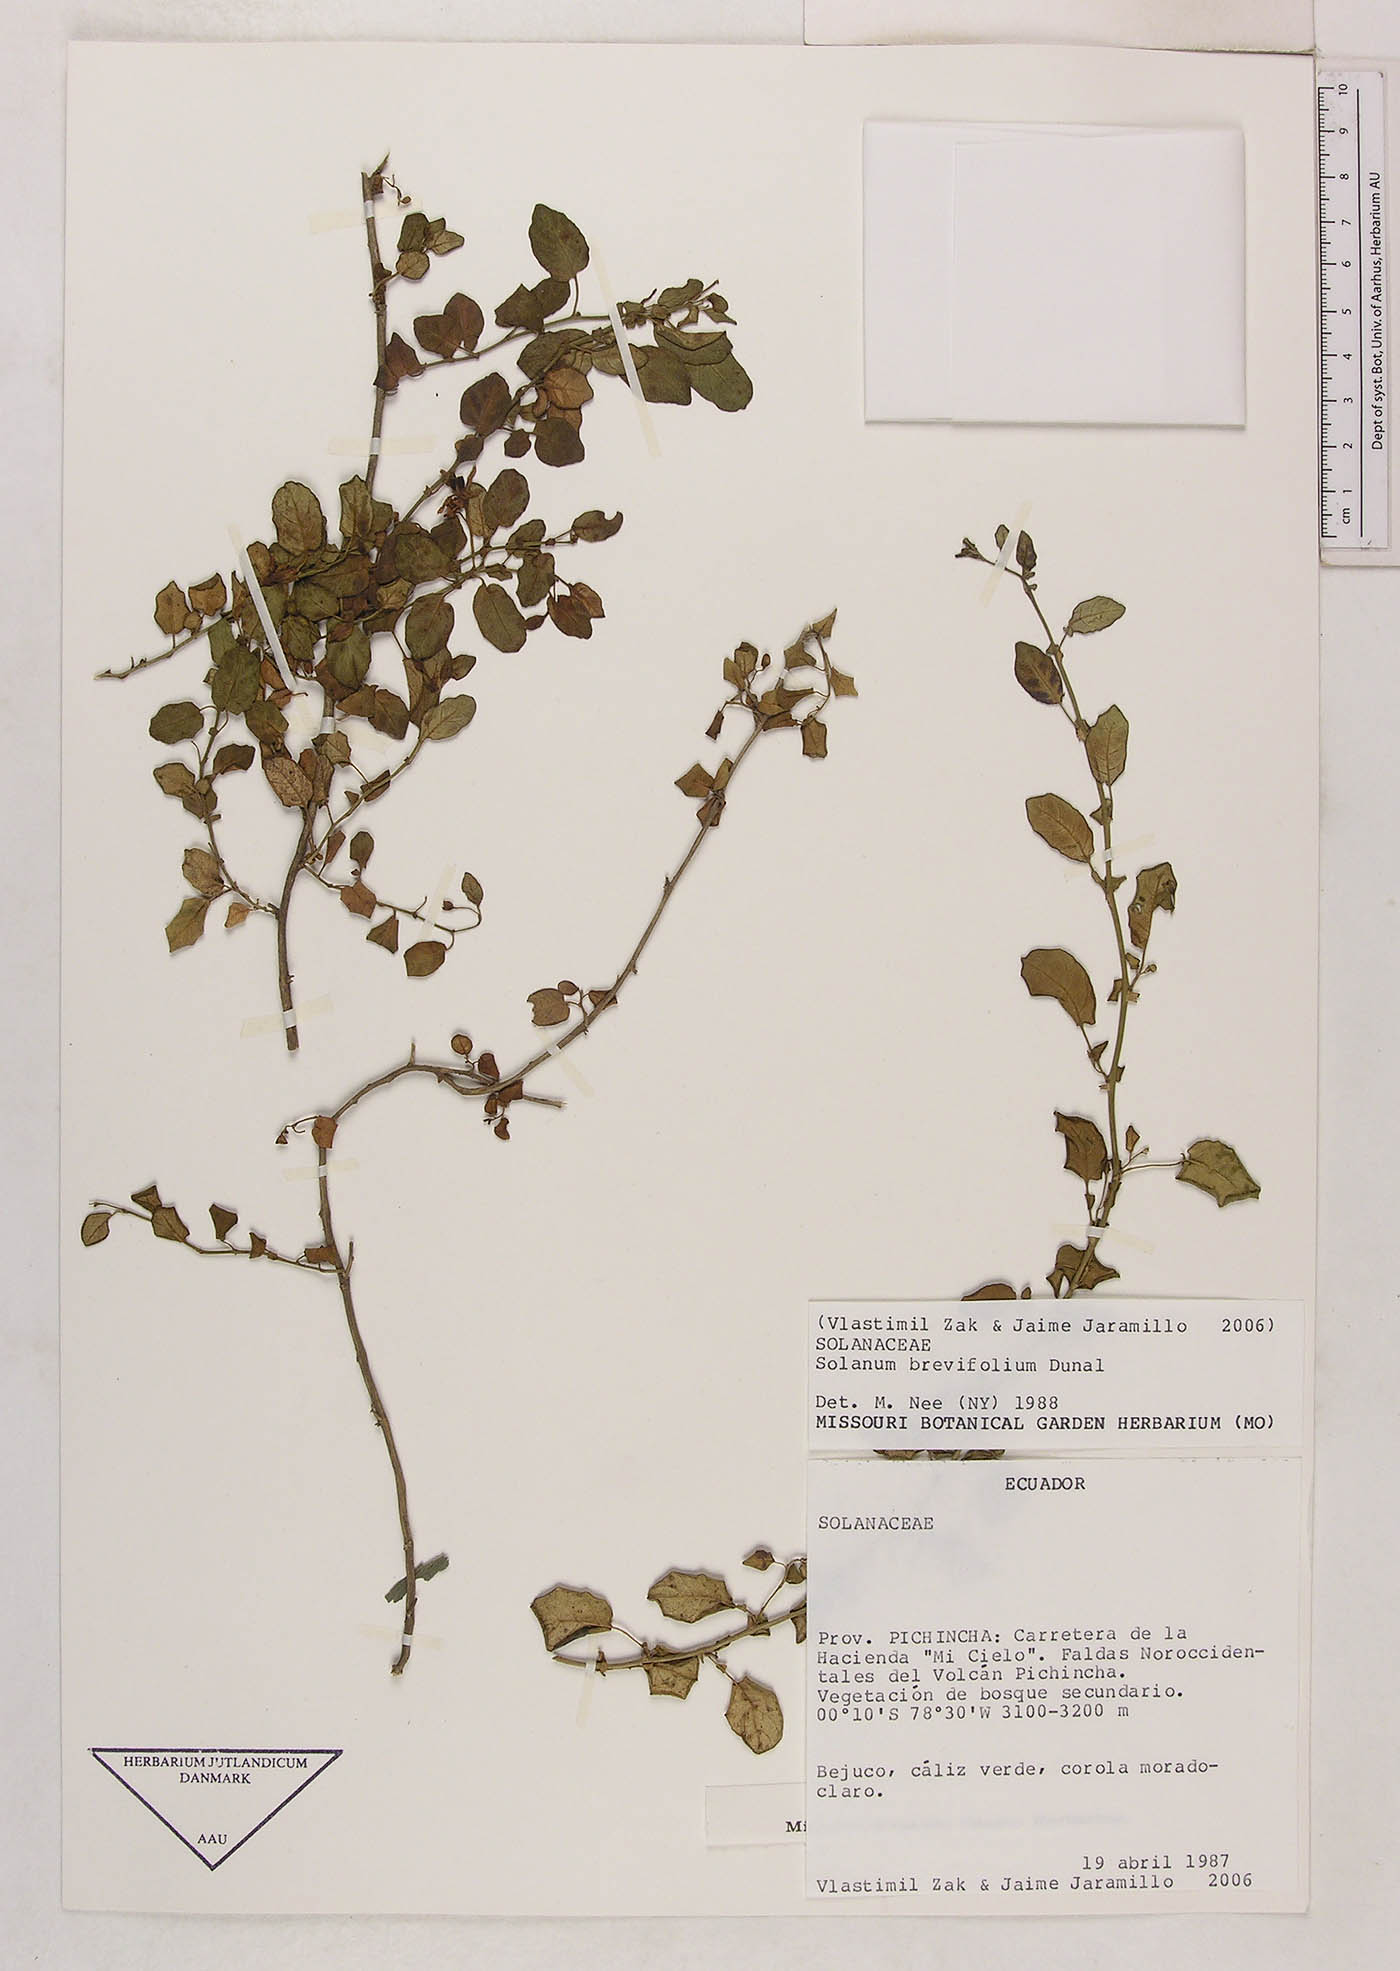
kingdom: Plantae
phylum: Tracheophyta
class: Magnoliopsida
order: Solanales
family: Solanaceae
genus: Solanum
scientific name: Solanum brevifolium
